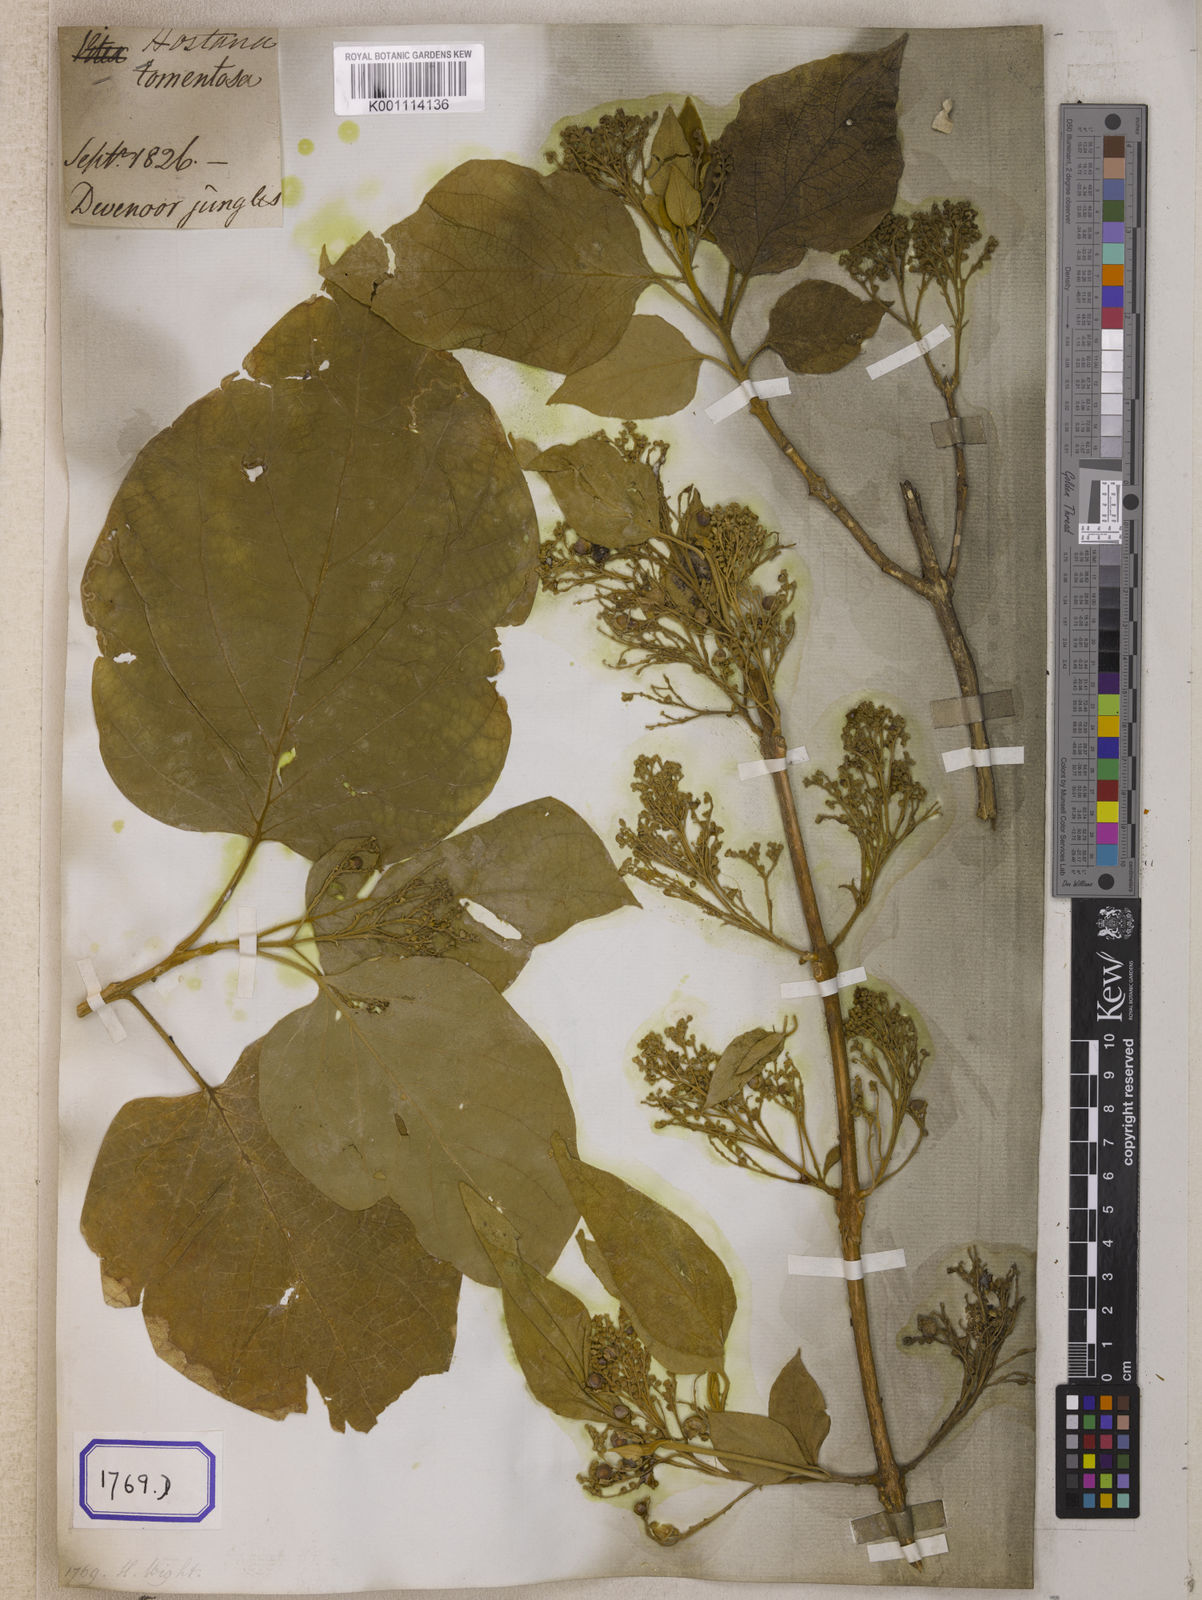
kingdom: Plantae
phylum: Tracheophyta
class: Magnoliopsida
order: Lamiales
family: Lamiaceae
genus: Premna
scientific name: Premna tomentosa
